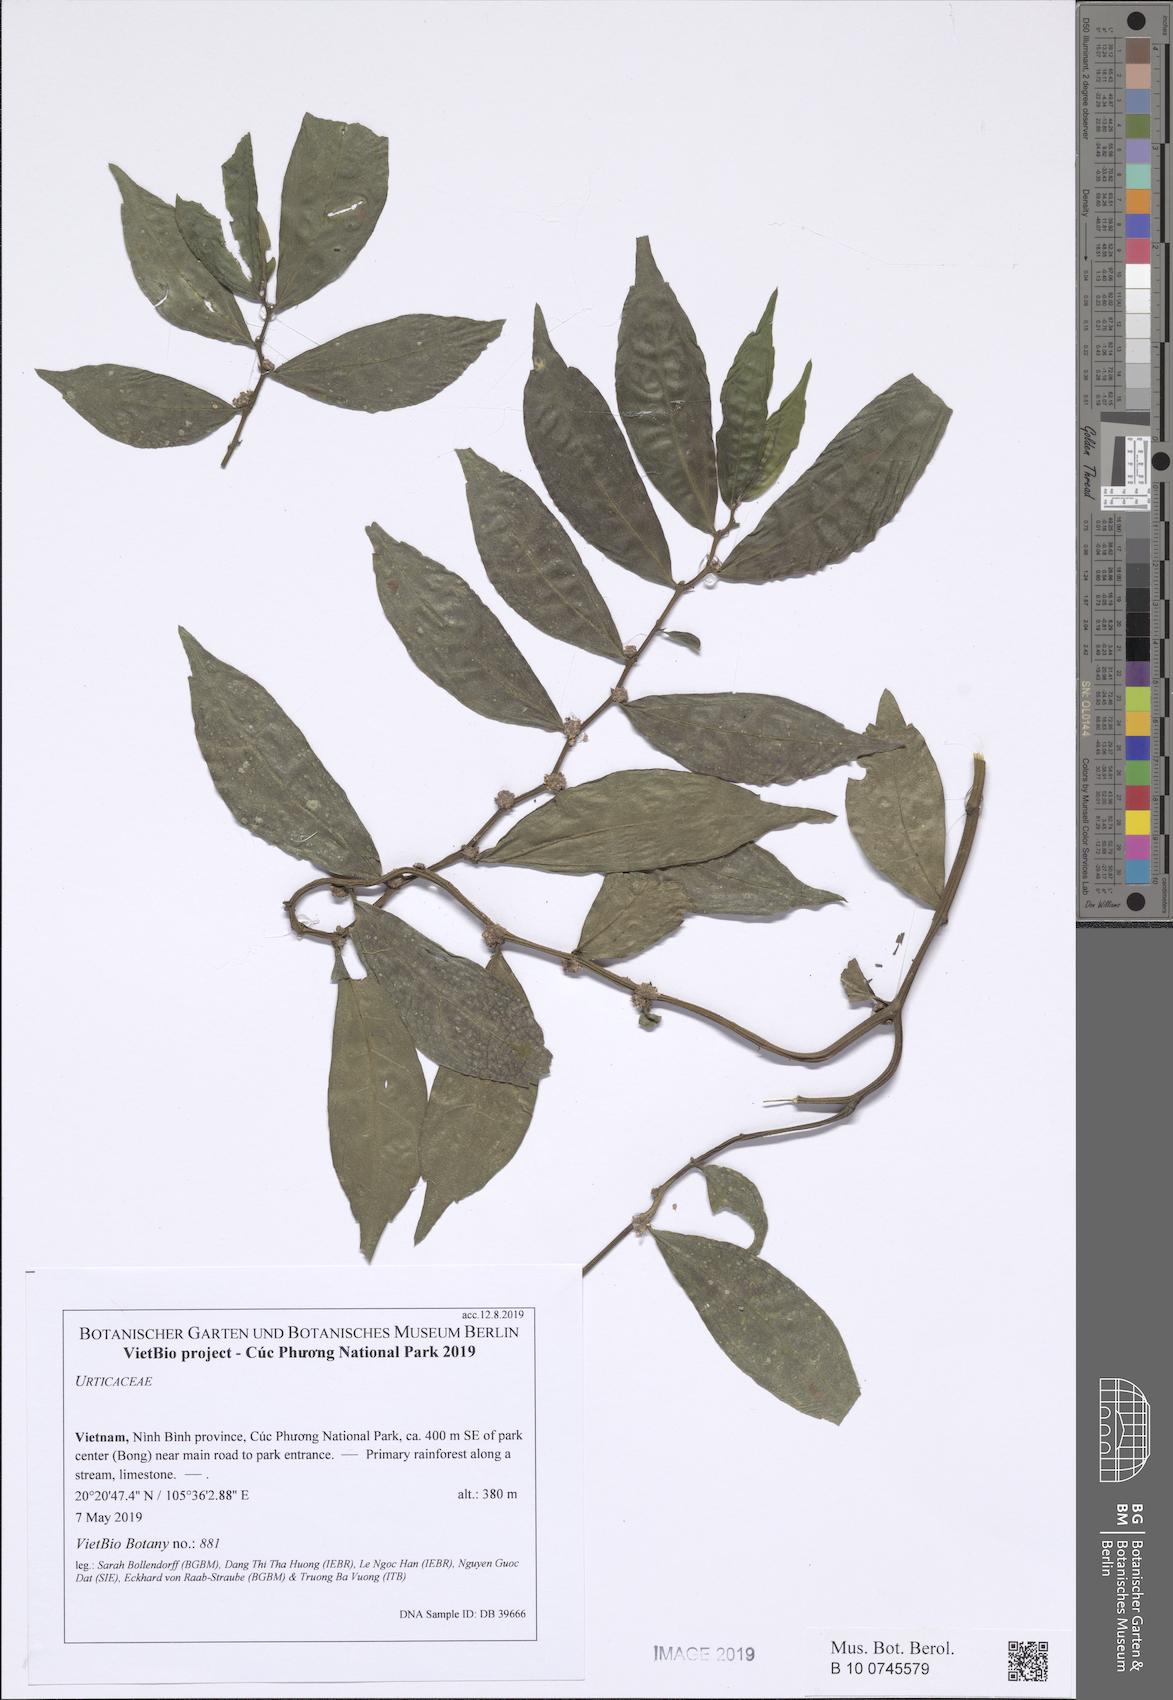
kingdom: Plantae
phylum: Tracheophyta
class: Magnoliopsida
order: Rosales
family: Urticaceae
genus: Elatostema
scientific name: Elatostema lineolatum
